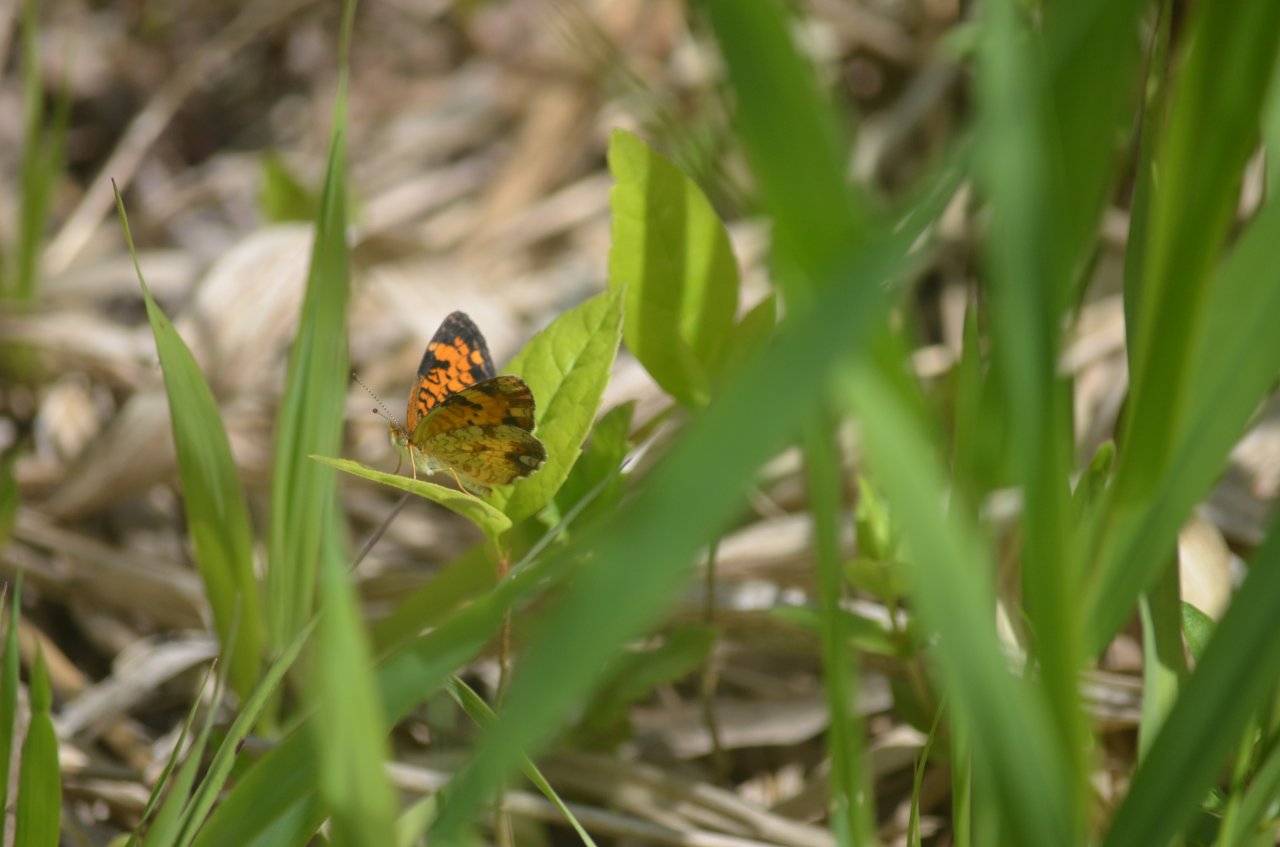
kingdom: Animalia
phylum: Arthropoda
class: Insecta
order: Lepidoptera
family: Nymphalidae
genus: Phyciodes
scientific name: Phyciodes tharos
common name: Pearl Crescent
